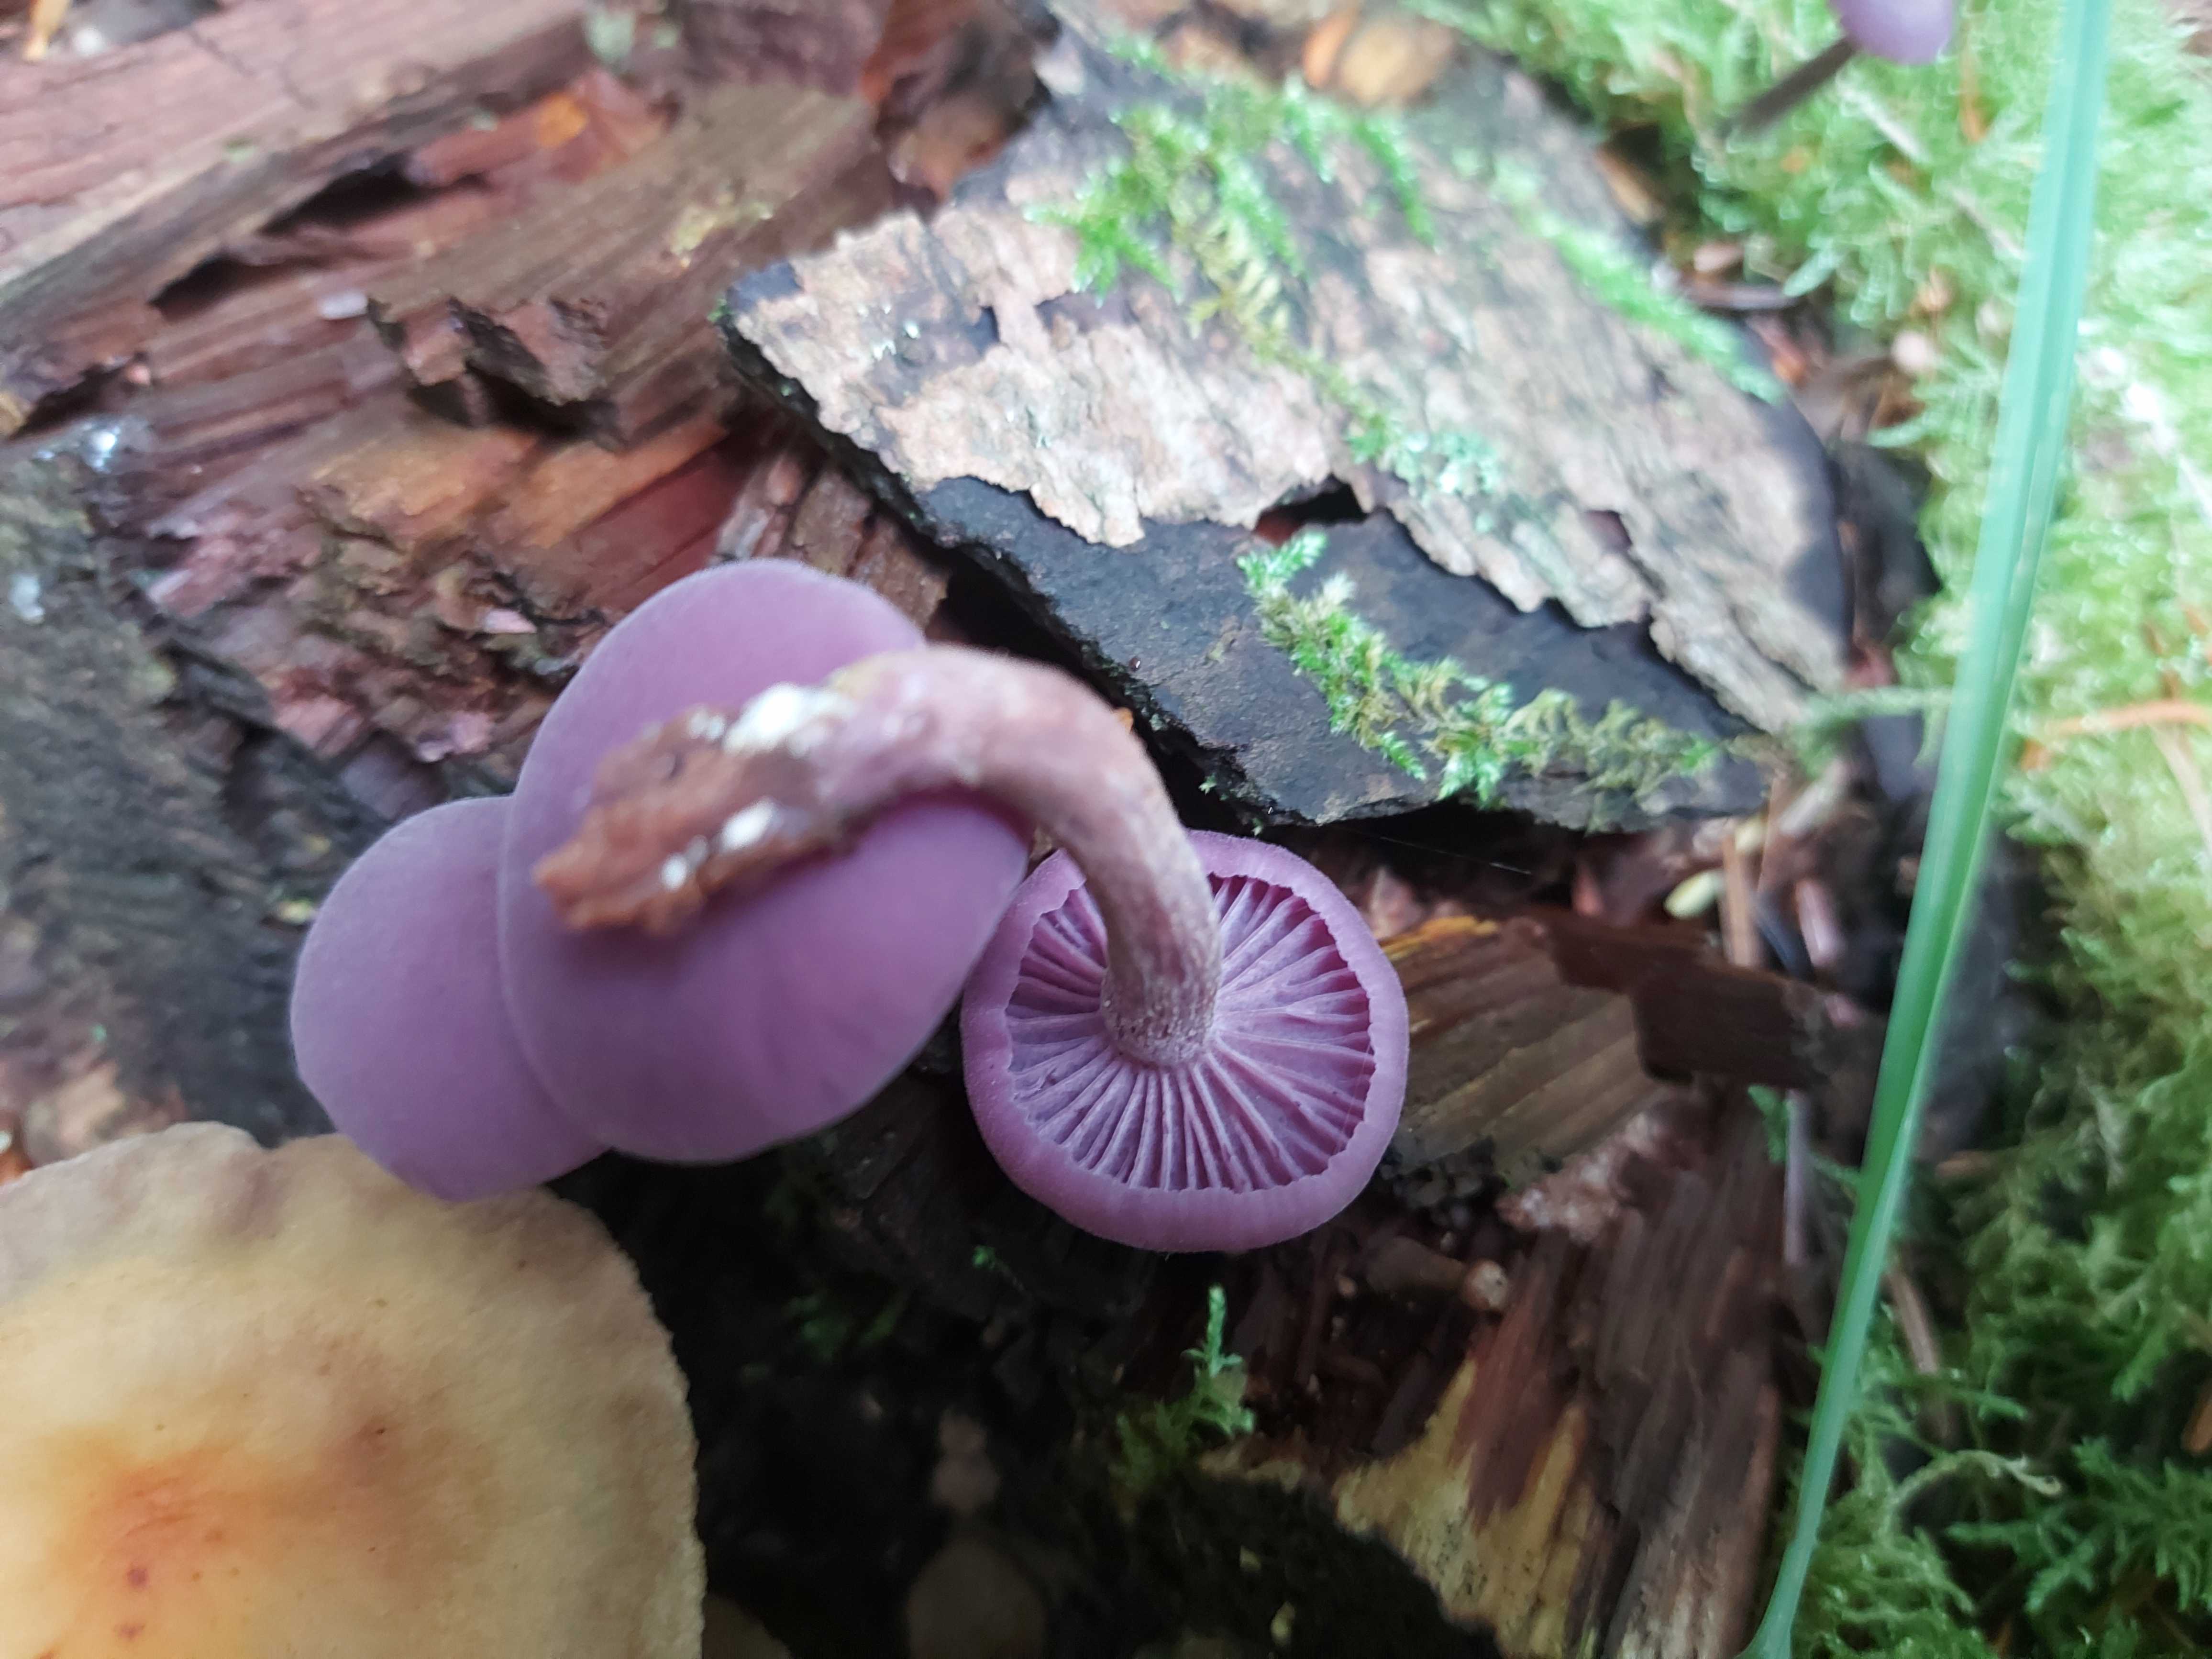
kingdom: Fungi
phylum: Basidiomycota
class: Agaricomycetes
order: Agaricales
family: Hydnangiaceae
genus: Laccaria
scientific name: Laccaria amethystina
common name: violet ametysthat
